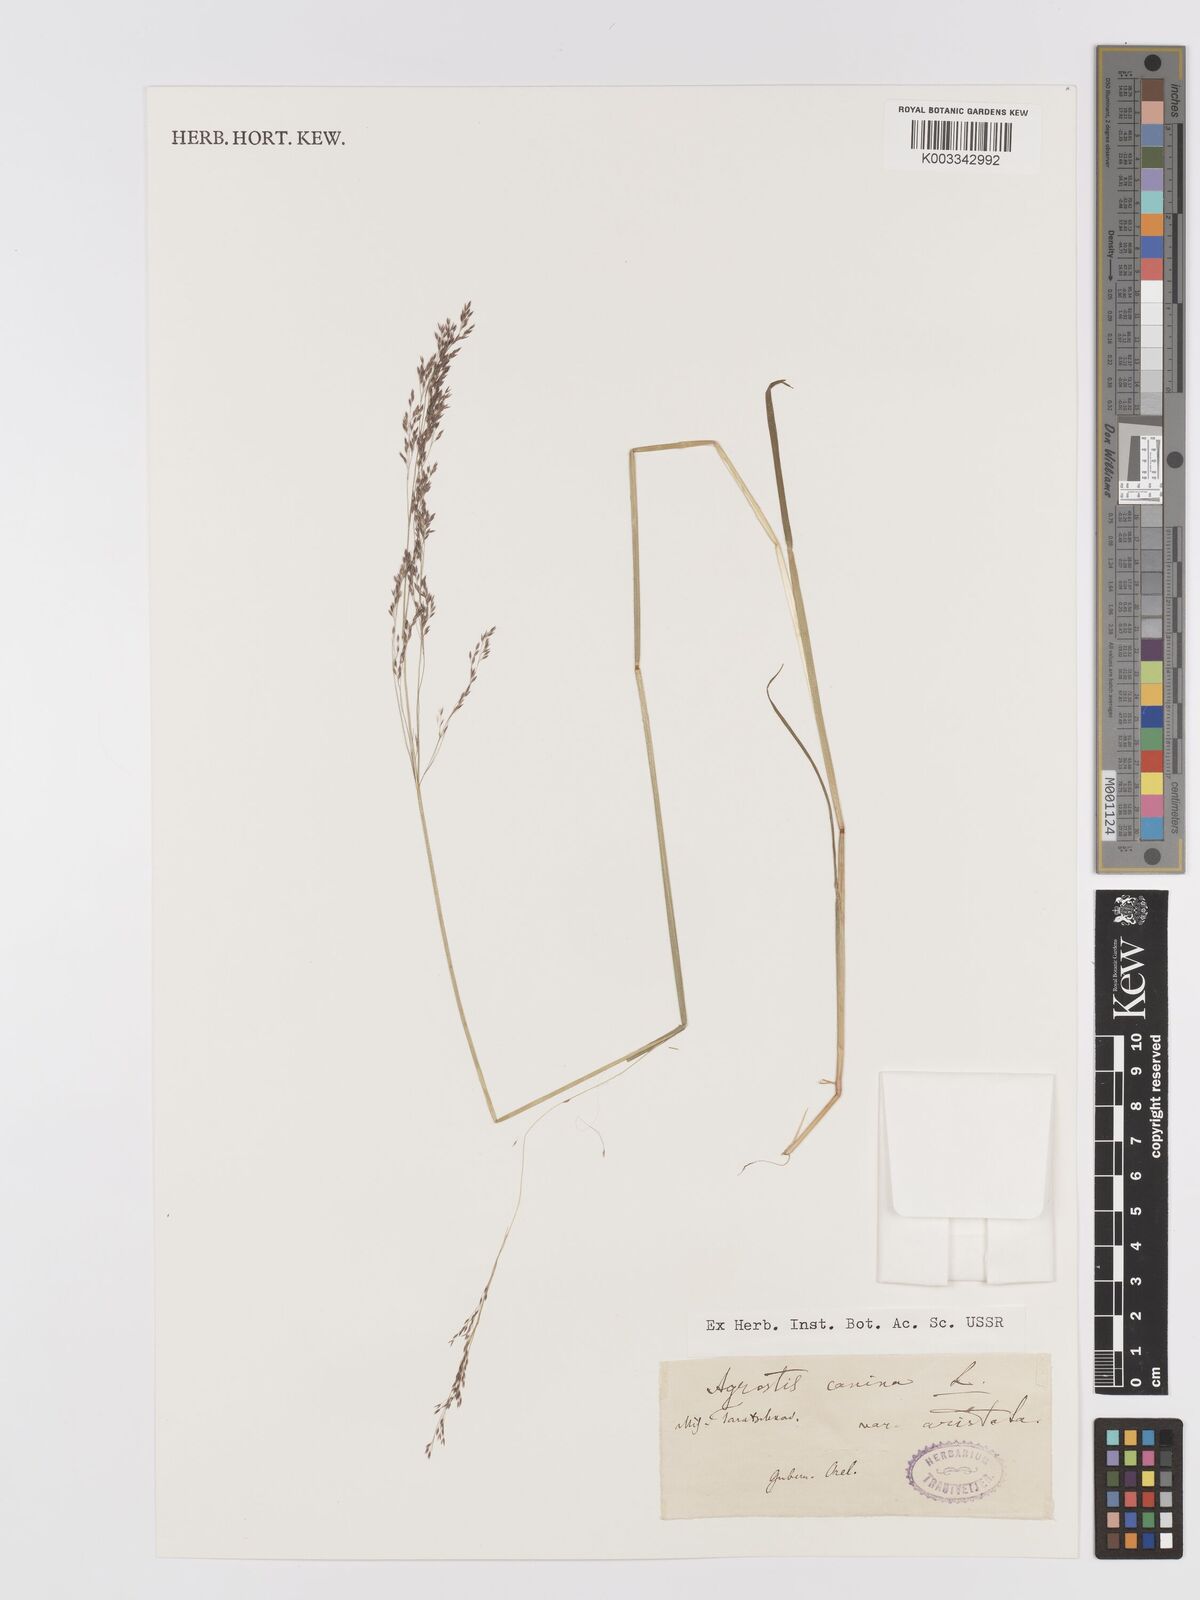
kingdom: Plantae
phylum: Tracheophyta
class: Liliopsida
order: Poales
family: Poaceae
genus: Agrostis
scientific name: Agrostis canina
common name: Velvet bent
